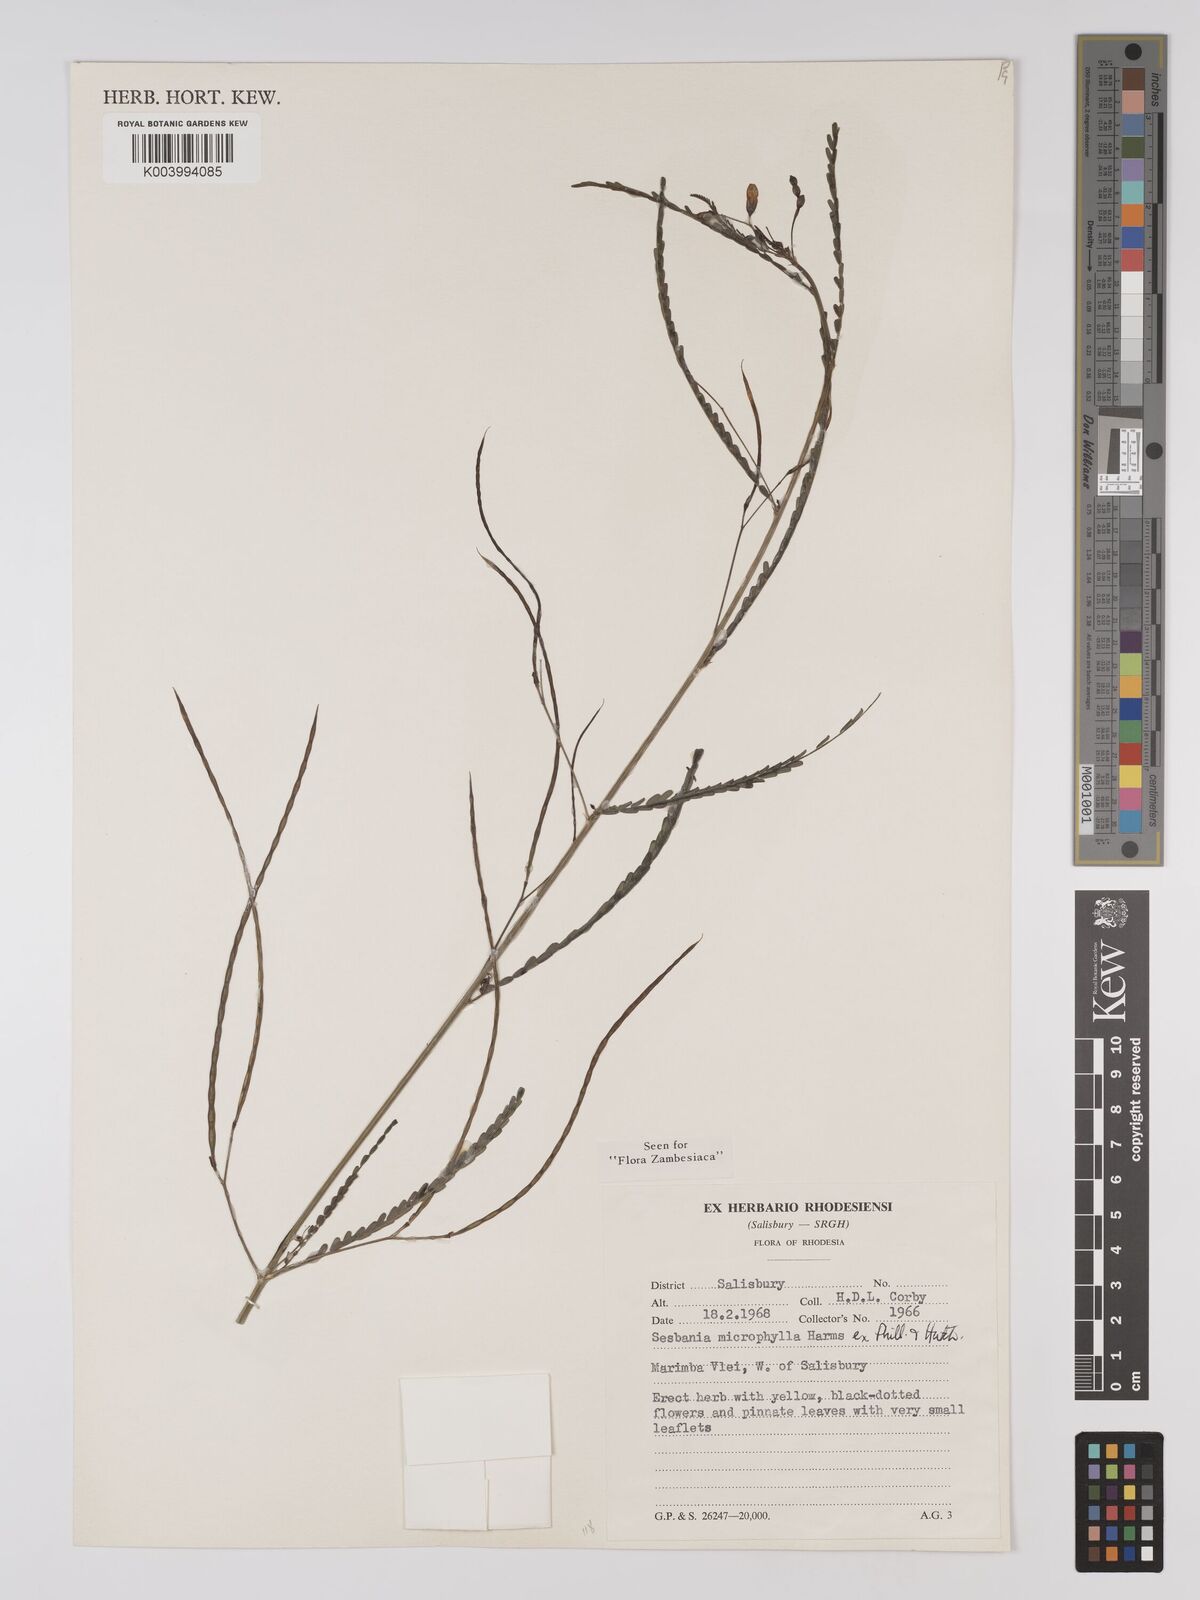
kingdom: Plantae
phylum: Tracheophyta
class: Magnoliopsida
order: Fabales
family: Fabaceae
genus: Sesbania
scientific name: Sesbania microphylla
